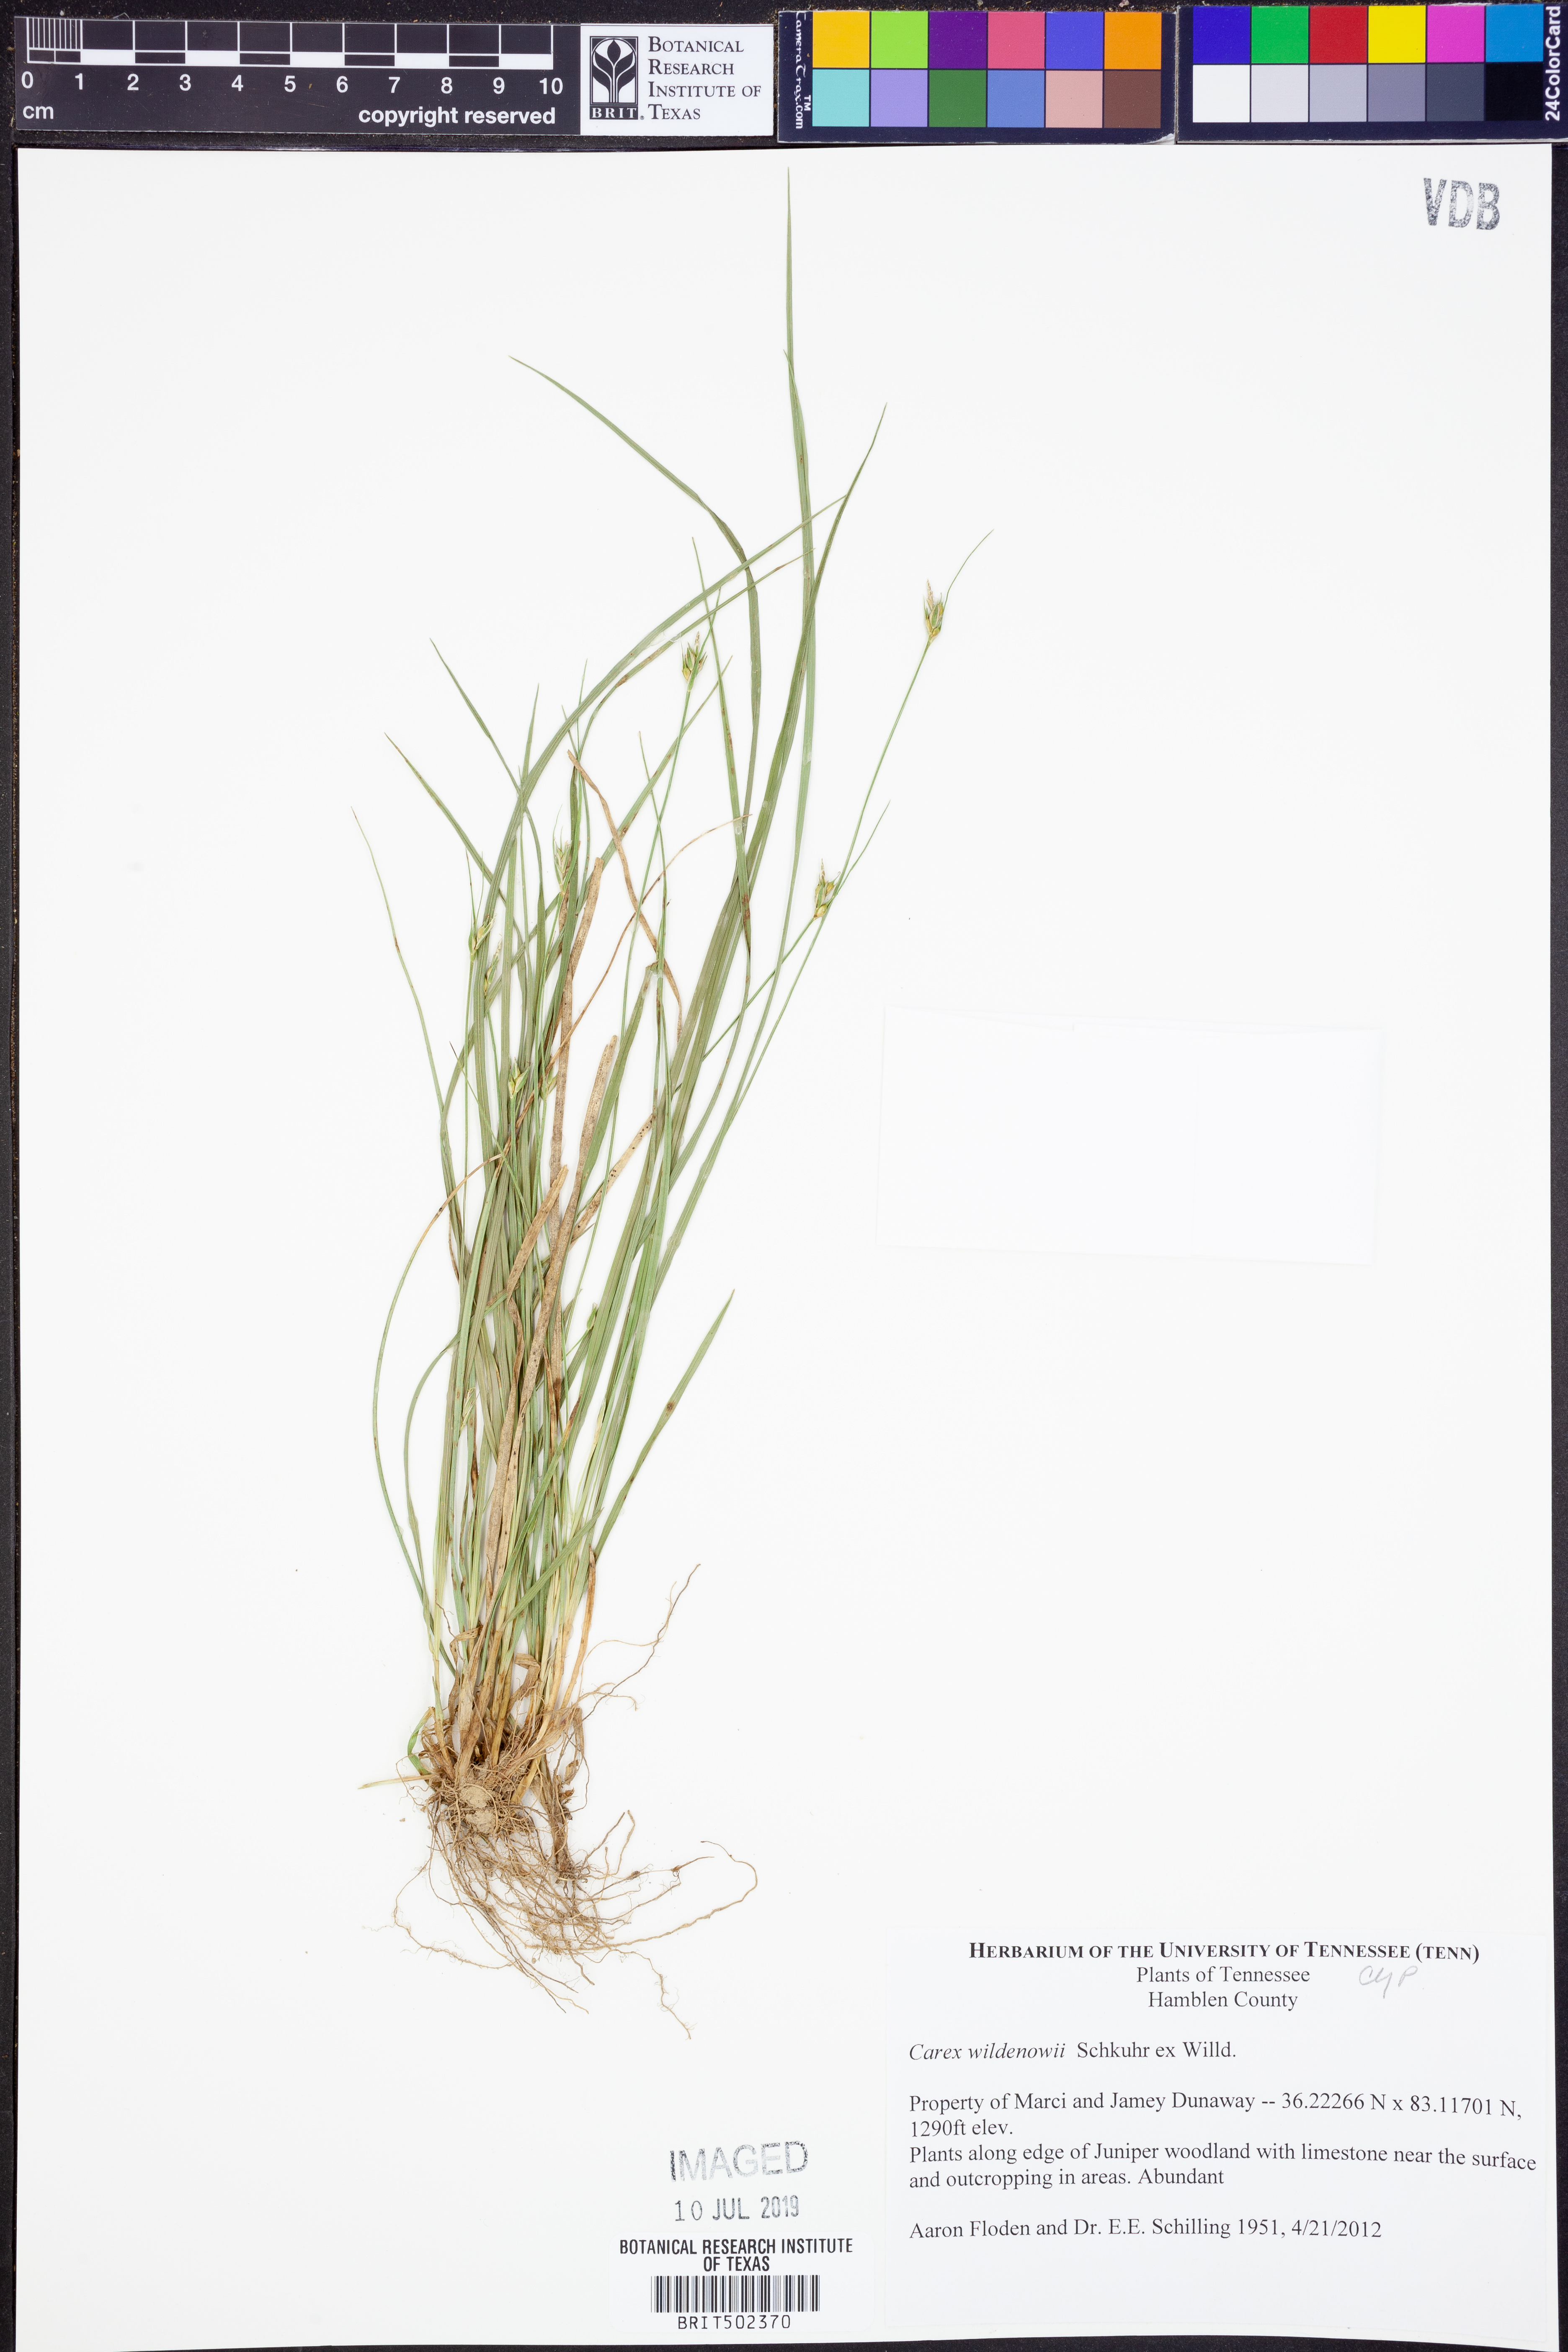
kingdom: Plantae
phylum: Tracheophyta
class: Liliopsida
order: Poales
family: Cyperaceae
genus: Carex
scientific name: Carex willdenowii
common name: Willdenow's sedge
